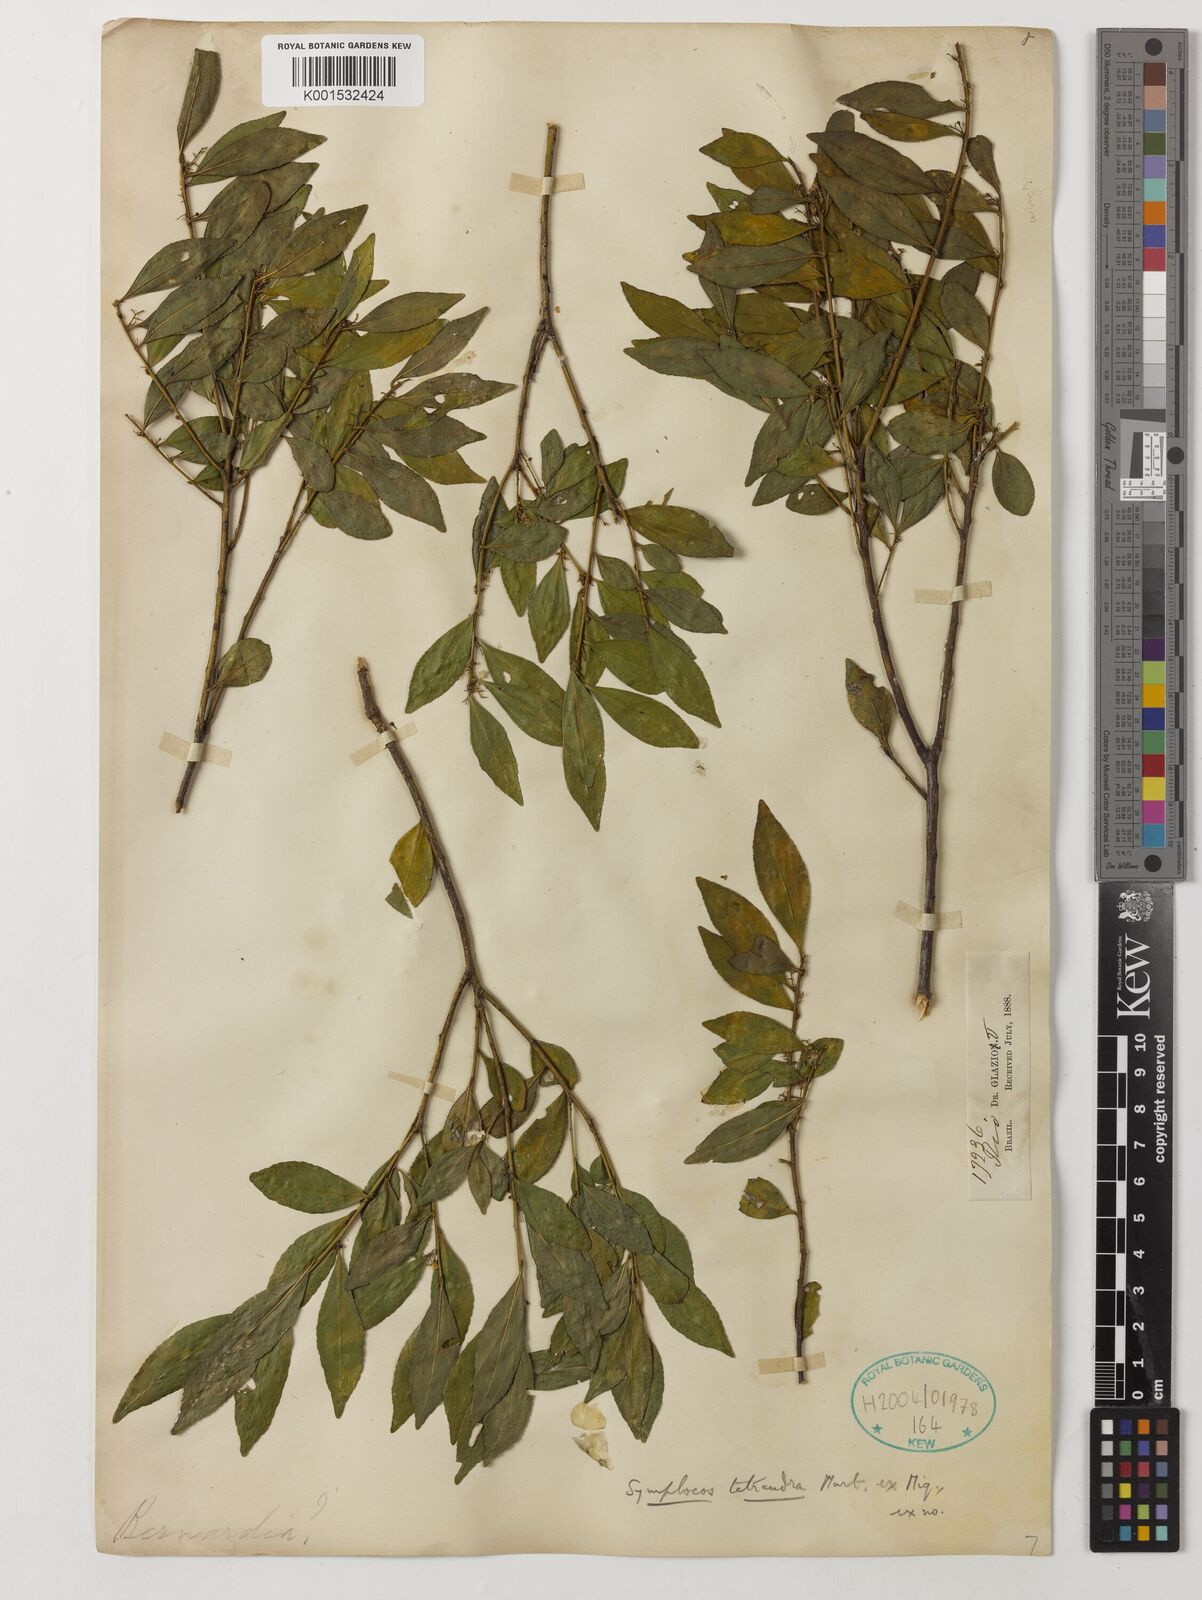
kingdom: Plantae
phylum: Tracheophyta
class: Magnoliopsida
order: Ericales
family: Symplocaceae
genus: Symplocos
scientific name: Symplocos tetrandra
